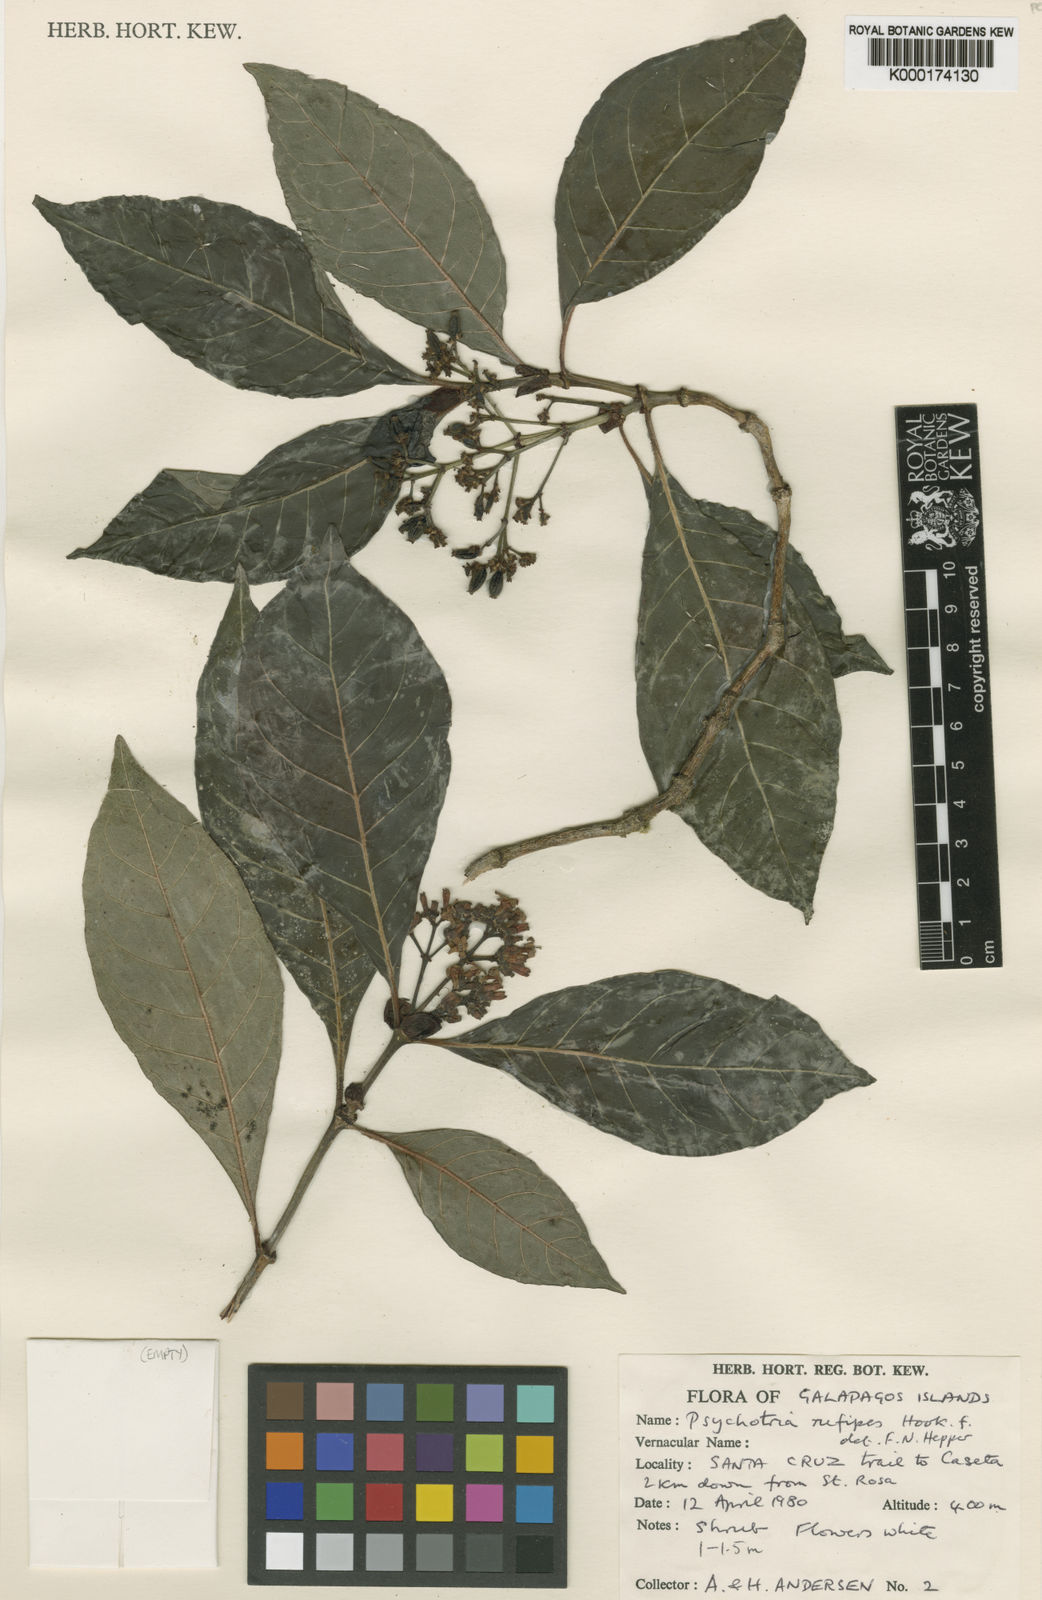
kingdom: Plantae
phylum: Tracheophyta
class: Magnoliopsida
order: Gentianales
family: Rubiaceae
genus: Psychotria
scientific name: Psychotria rufipes
